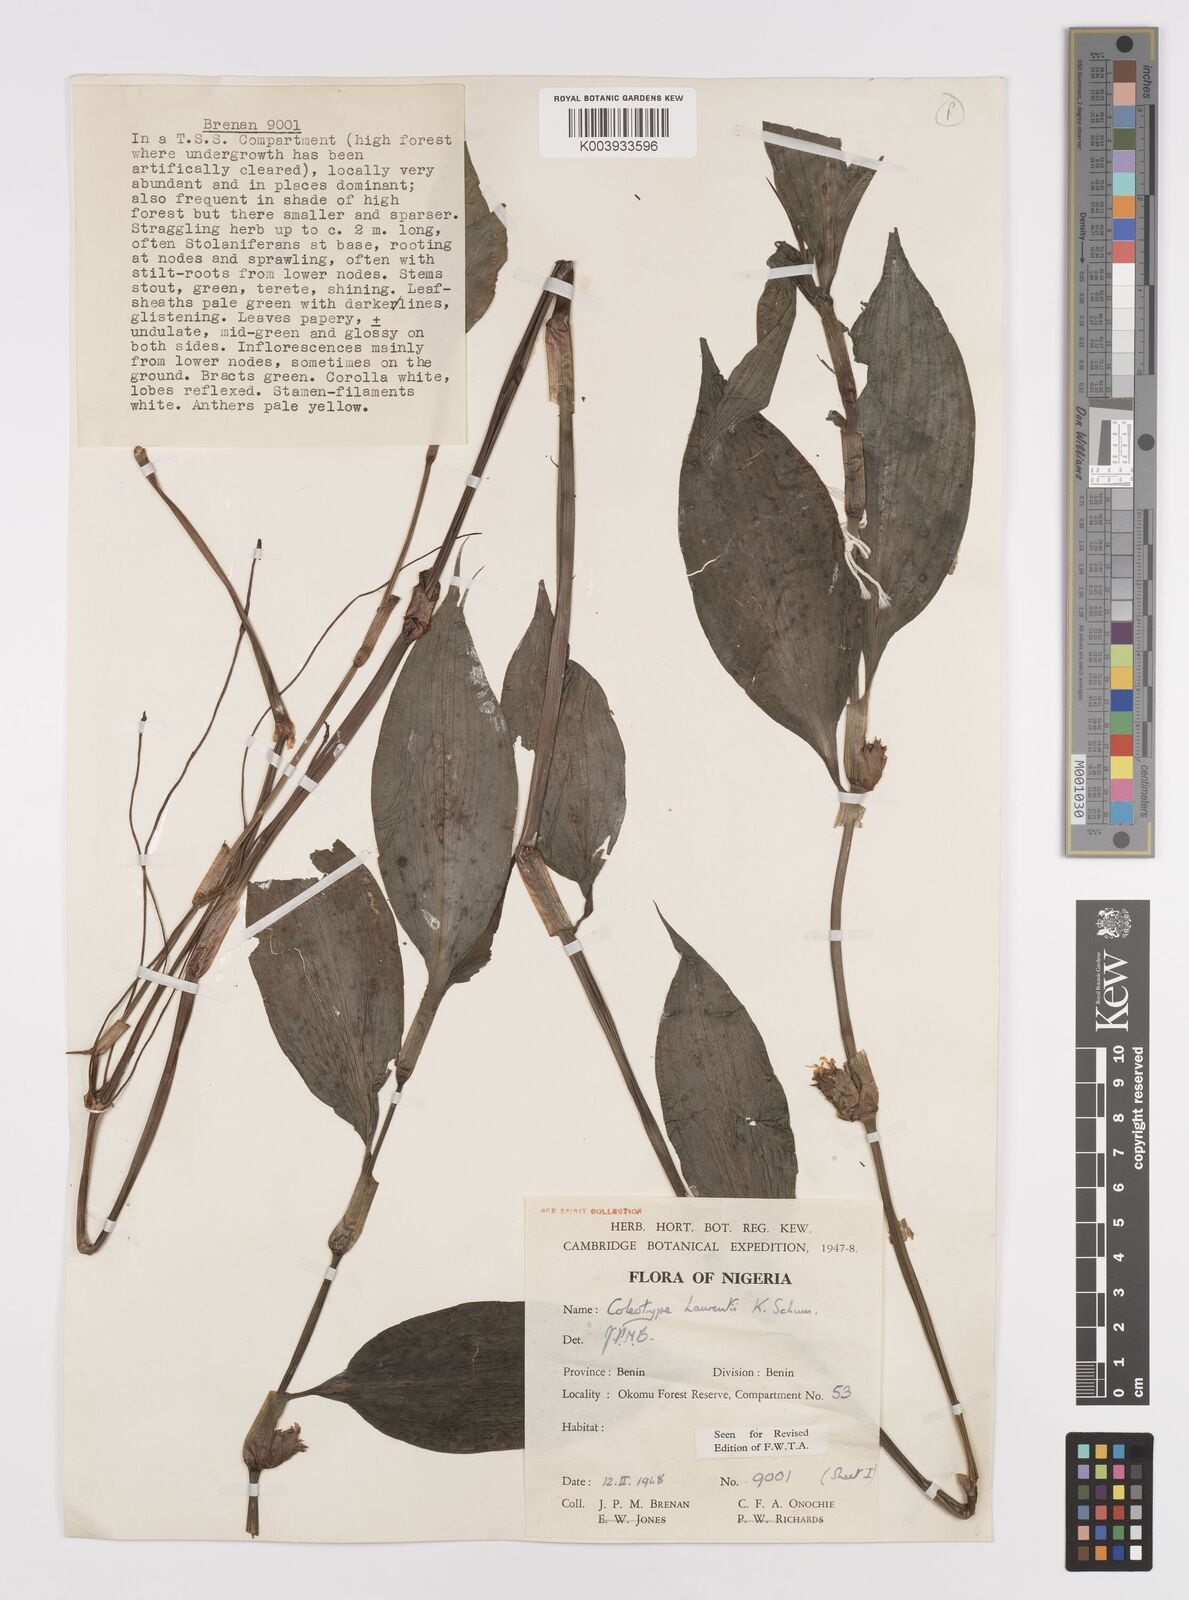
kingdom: Plantae
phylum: Tracheophyta
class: Liliopsida
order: Commelinales
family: Commelinaceae
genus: Coleotrype
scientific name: Coleotrype laurentii
